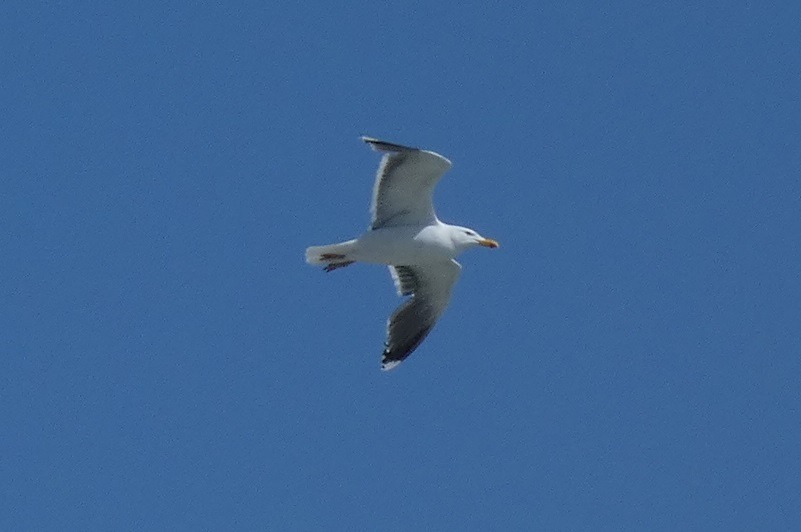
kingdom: Animalia
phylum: Chordata
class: Aves
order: Charadriiformes
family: Laridae
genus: Larus
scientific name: Larus marinus
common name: Svartbag
